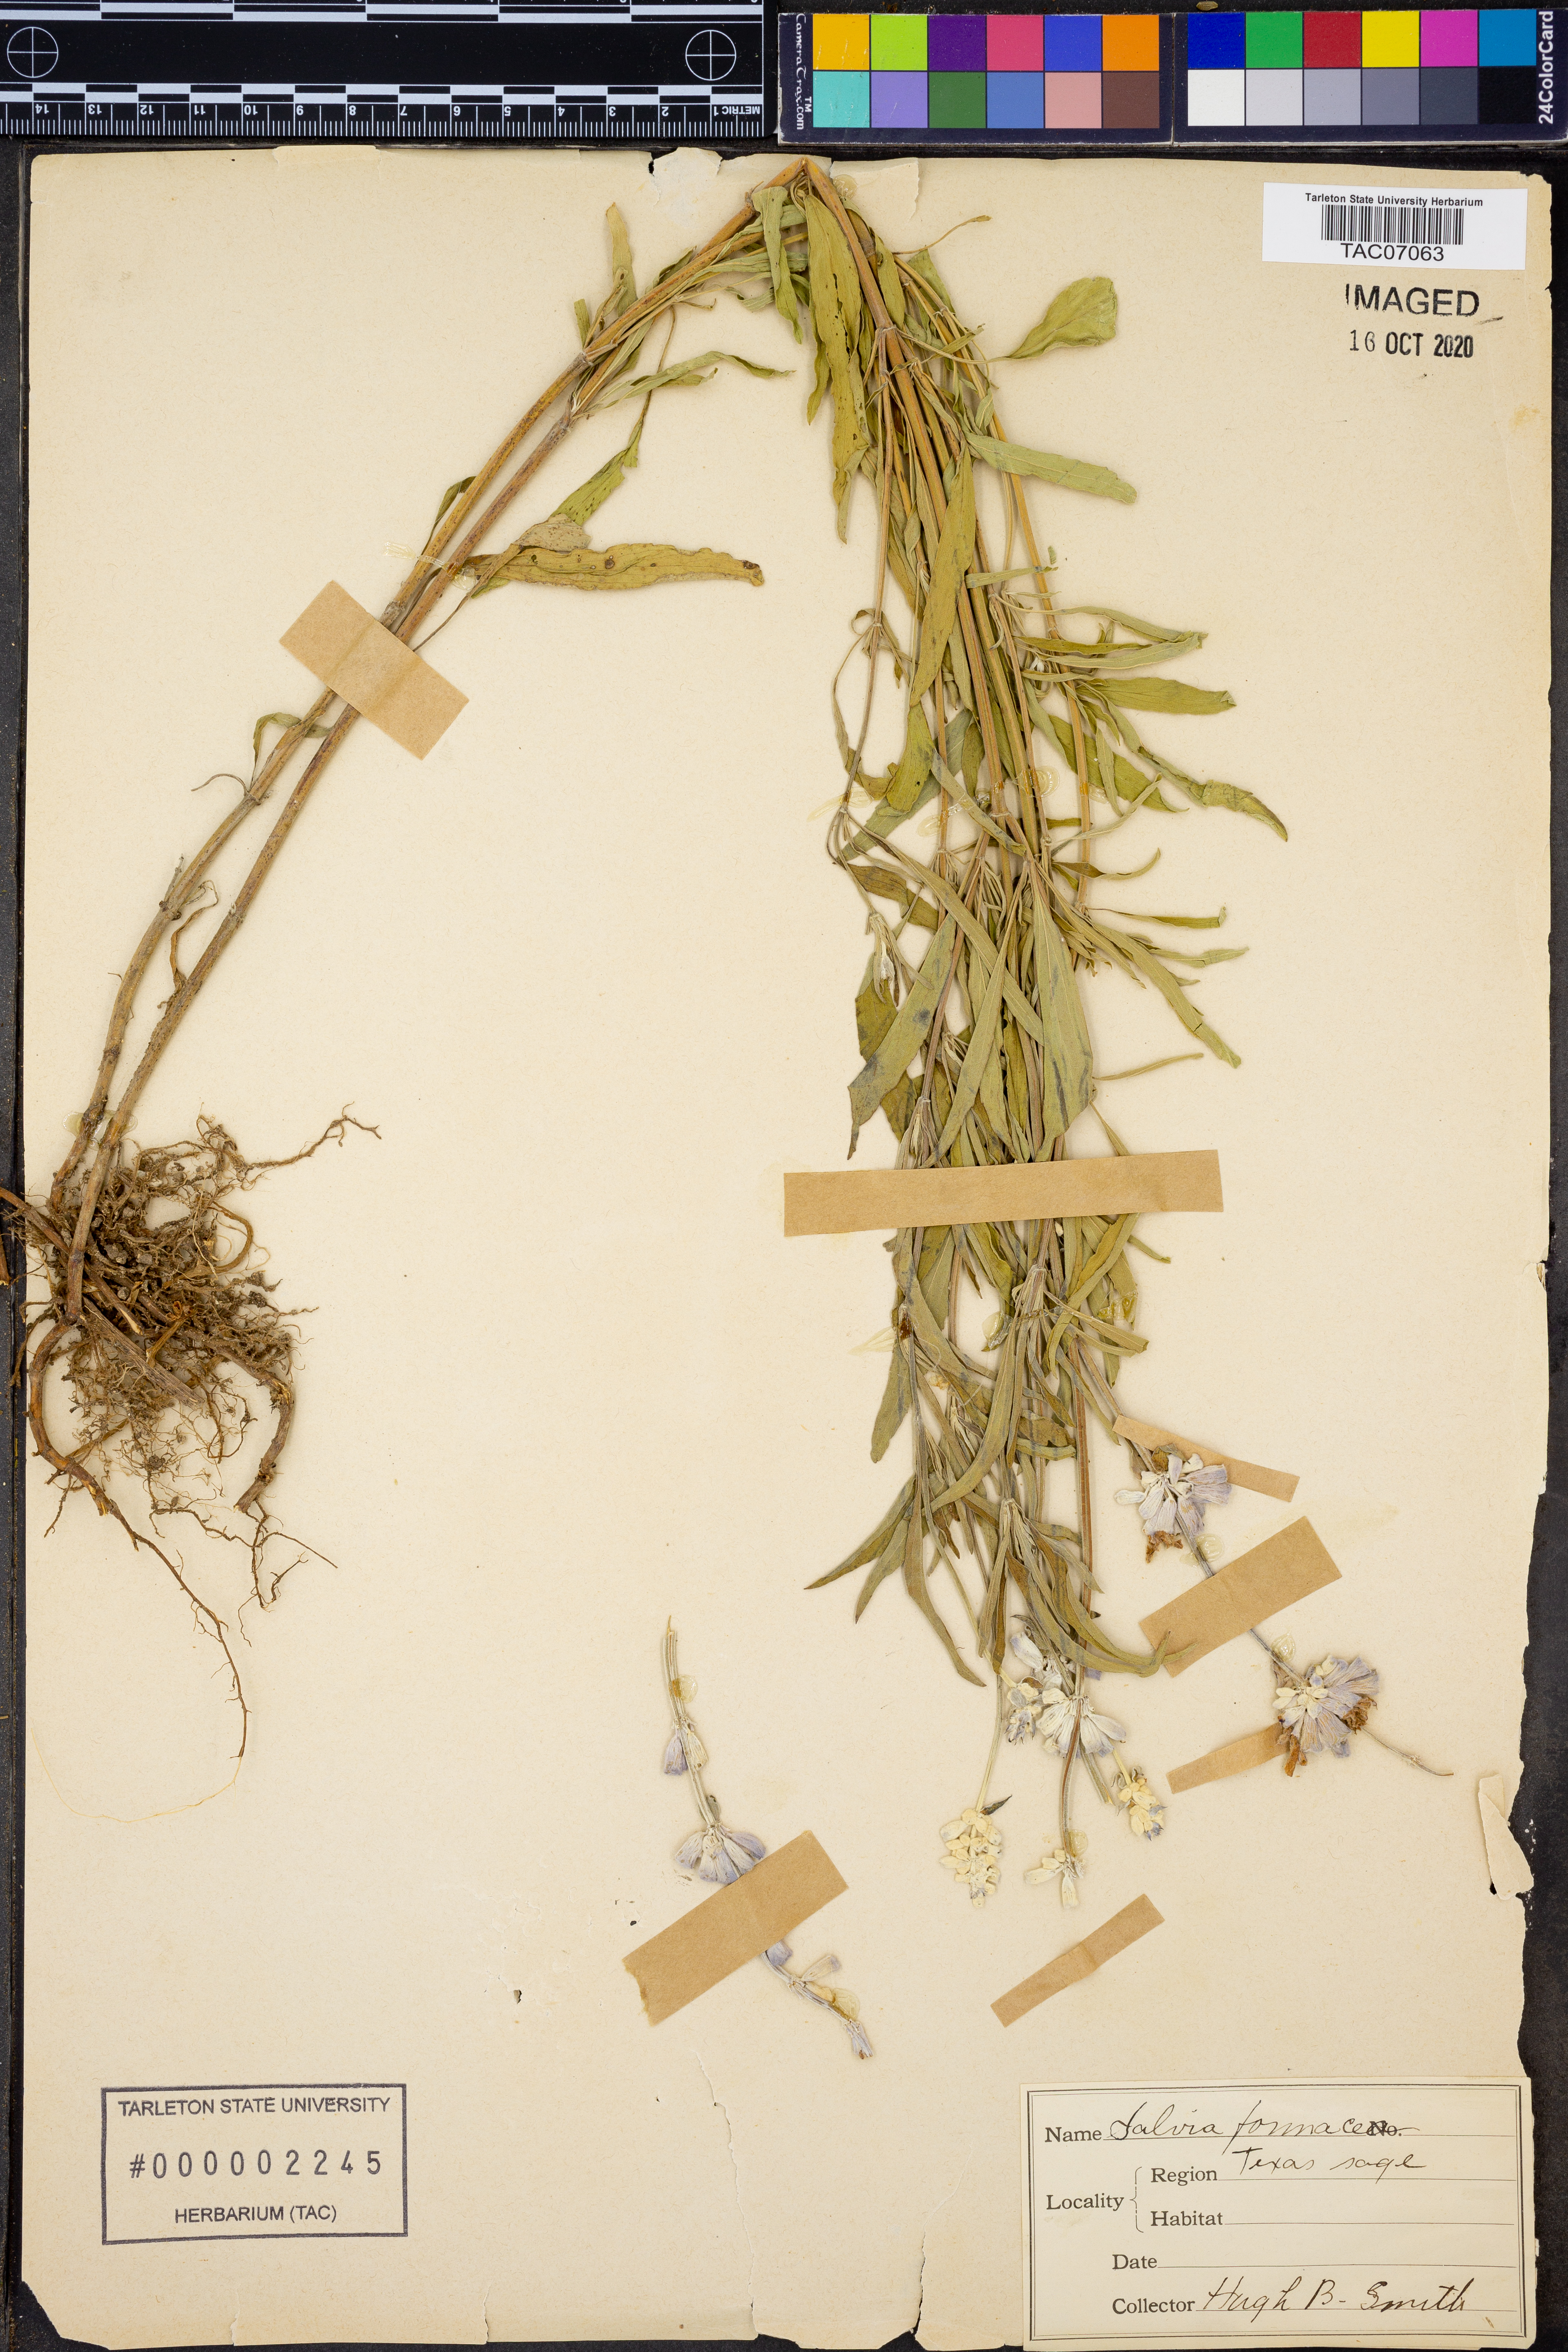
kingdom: Plantae
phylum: Tracheophyta
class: Magnoliopsida
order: Lamiales
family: Lamiaceae
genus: Salvia
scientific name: Salvia farinacea
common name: Mealy sage
